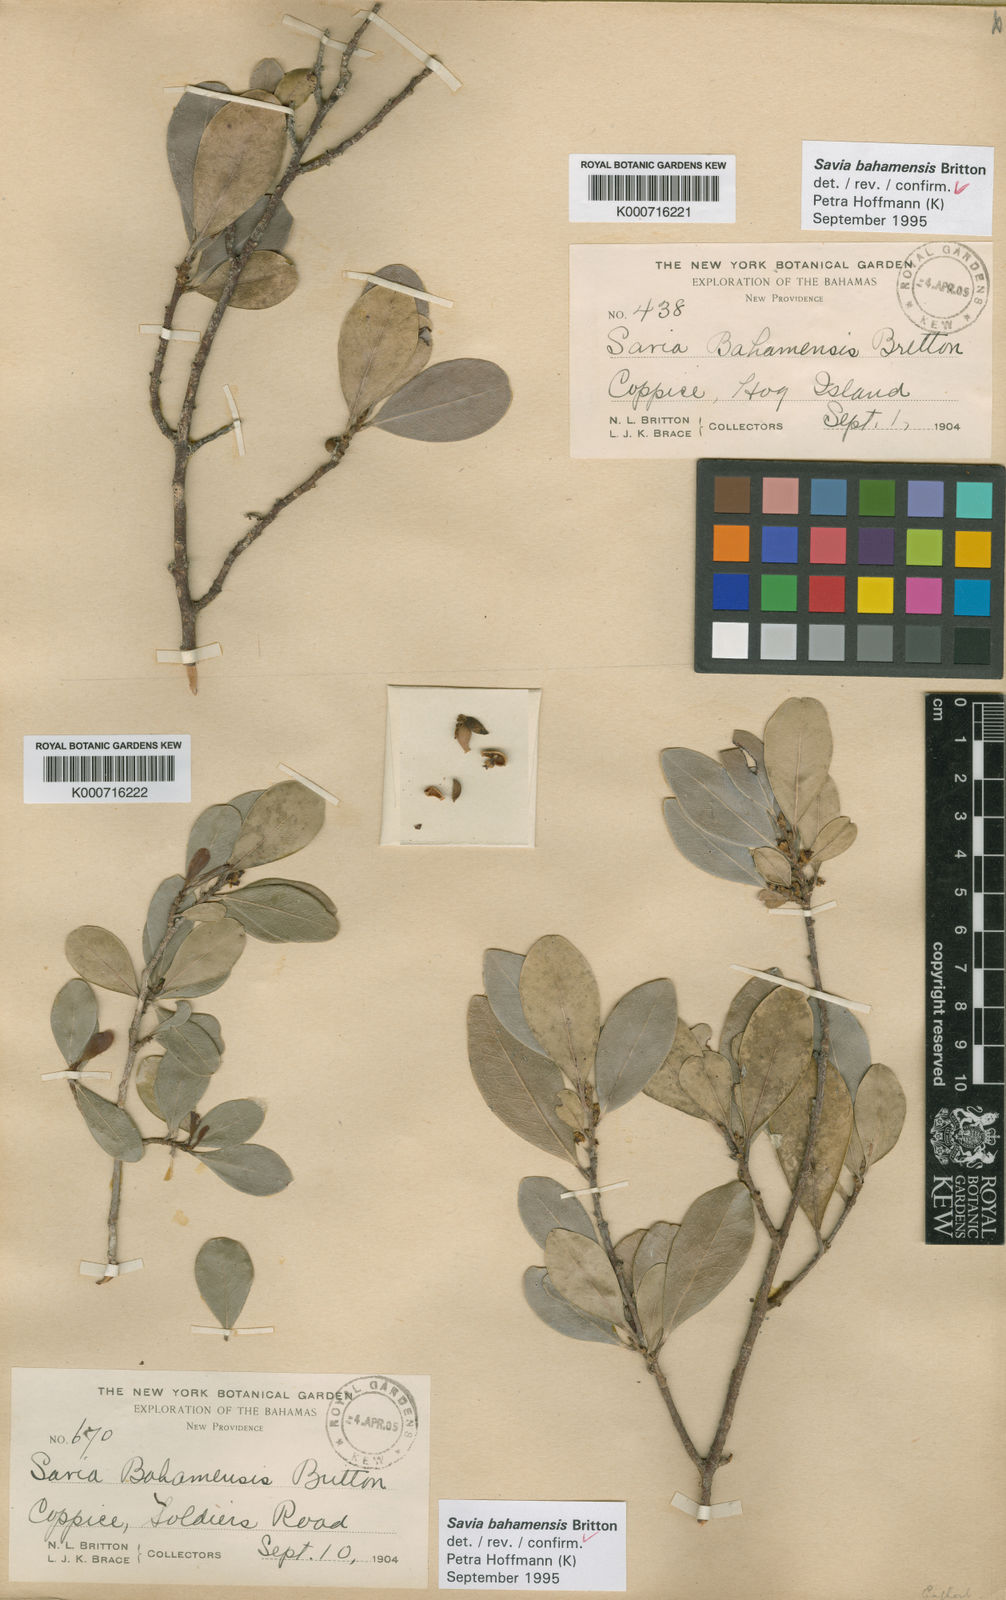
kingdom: Plantae
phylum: Tracheophyta
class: Magnoliopsida
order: Malpighiales
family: Phyllanthaceae
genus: Heterosavia
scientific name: Heterosavia bahamensis
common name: Bahama maidenbush
